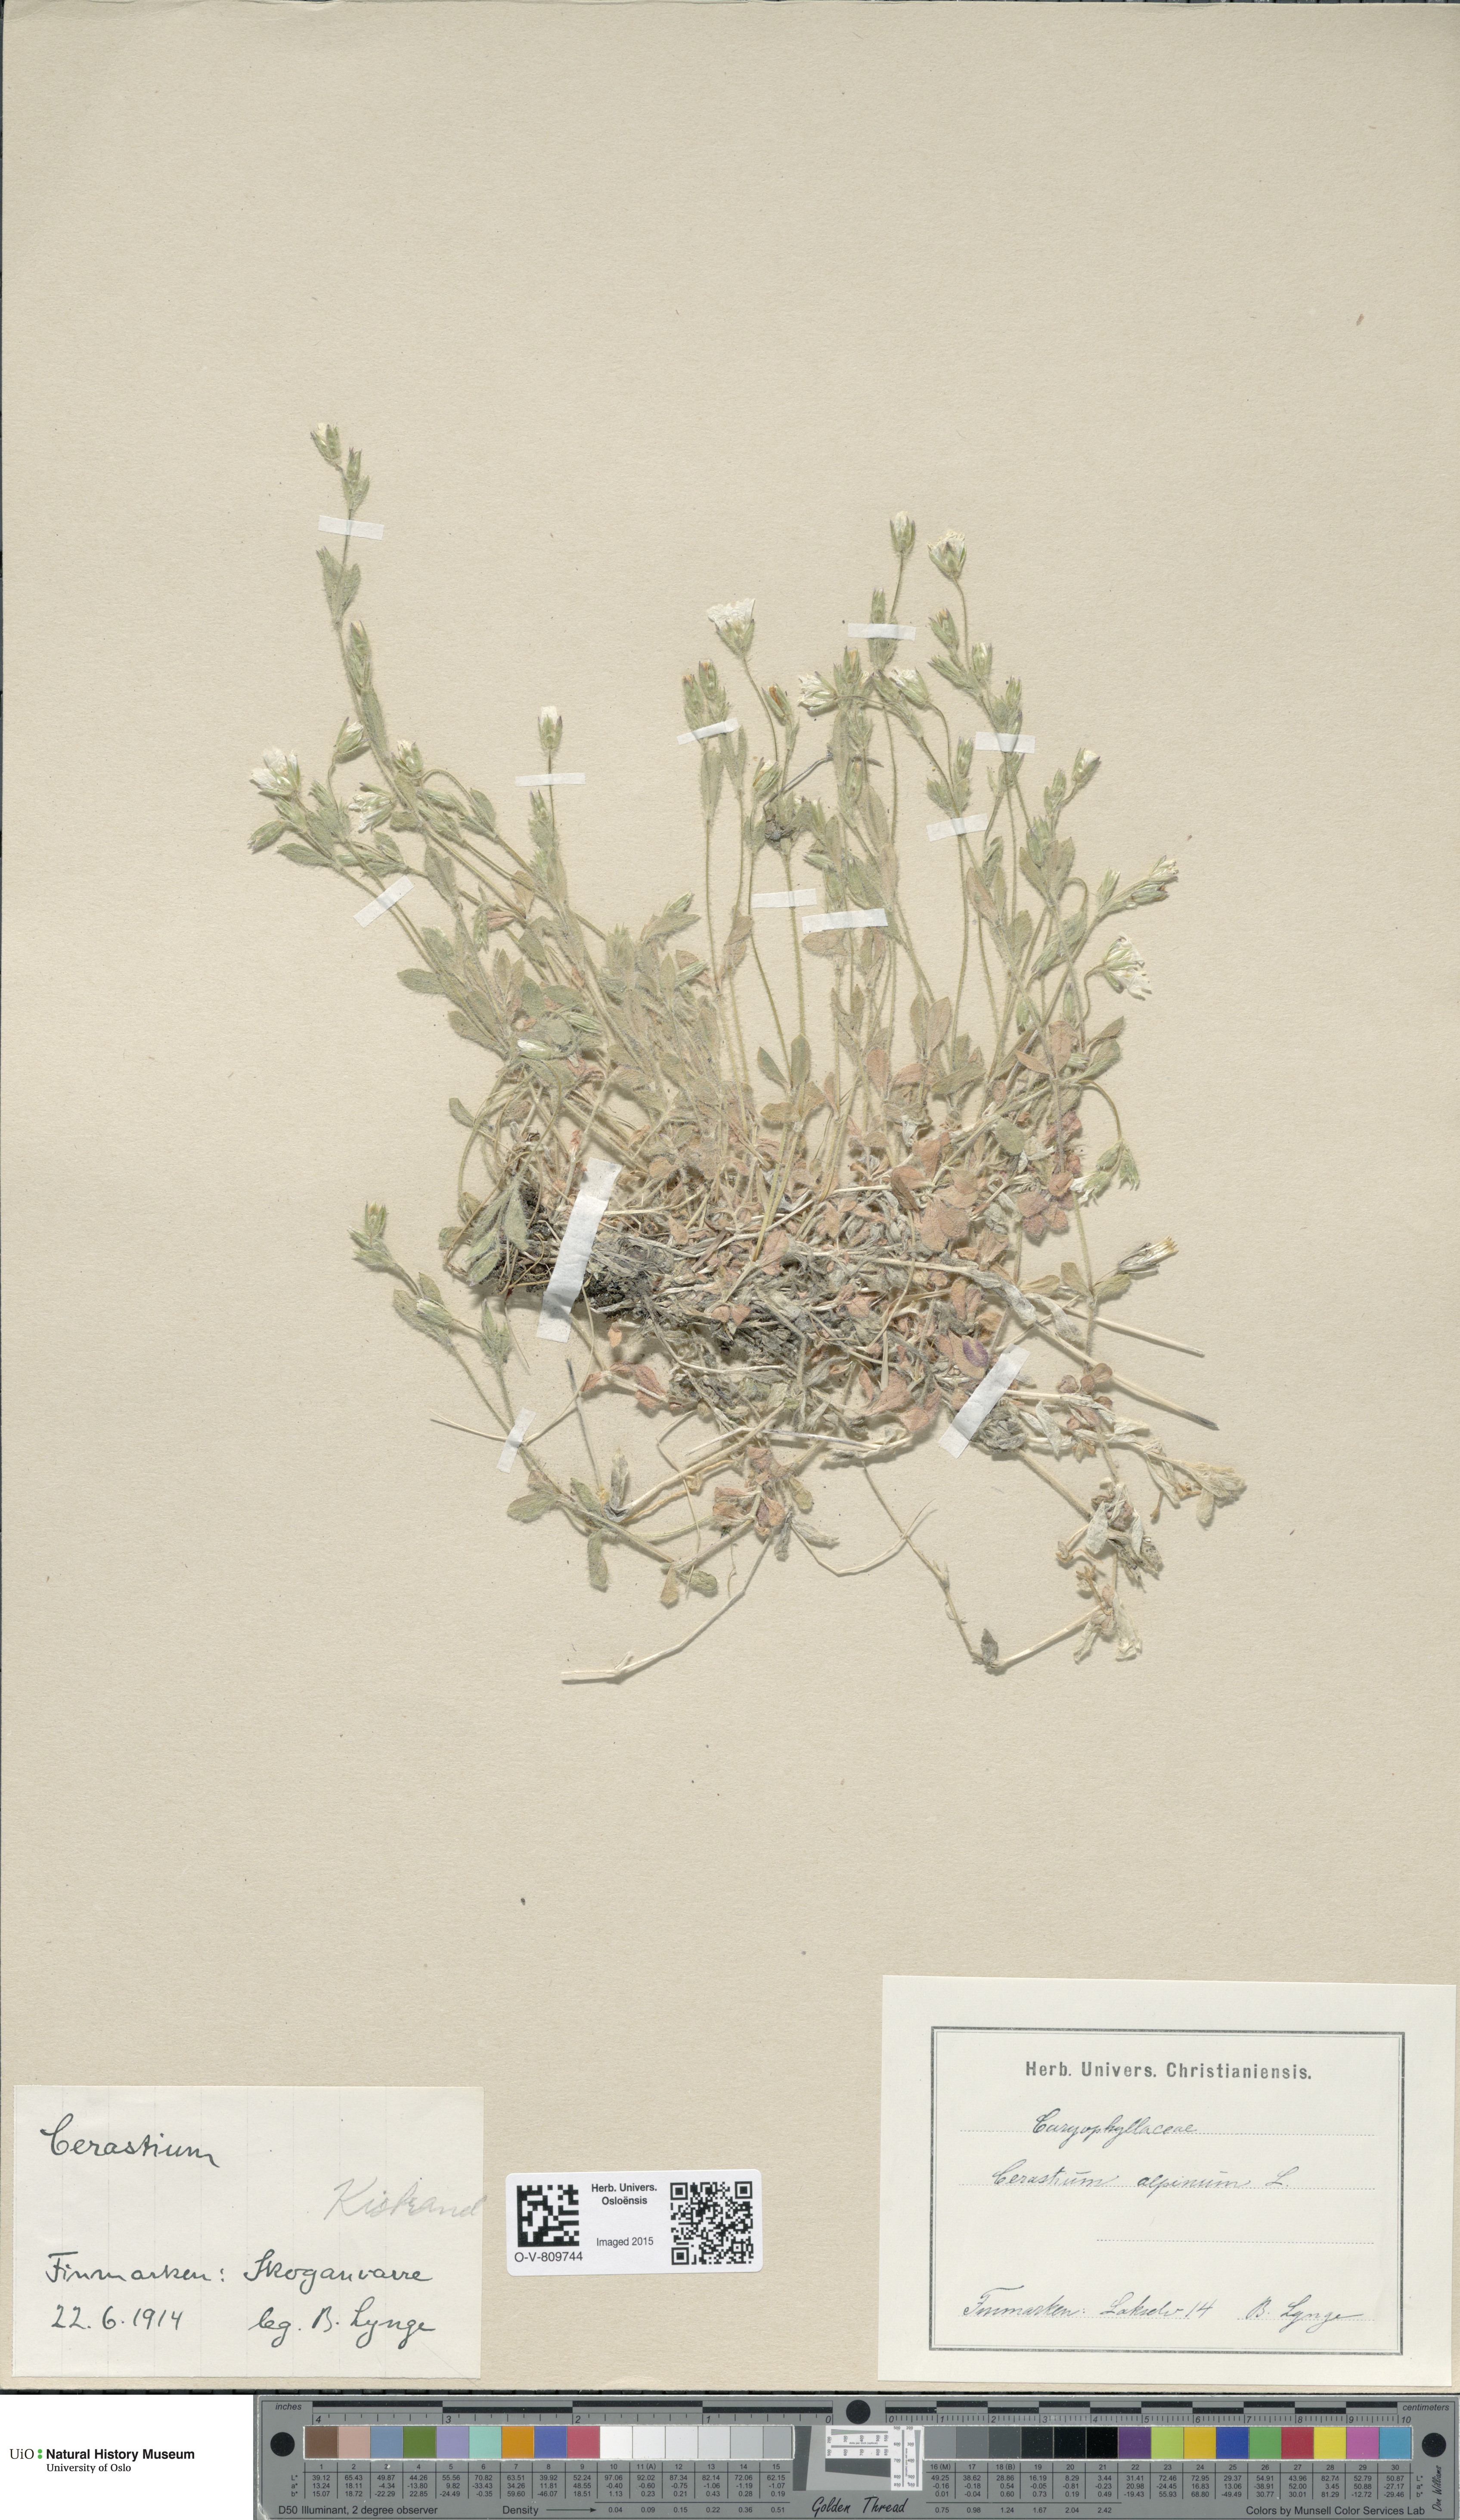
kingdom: Plantae
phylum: Tracheophyta
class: Magnoliopsida
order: Caryophyllales
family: Caryophyllaceae
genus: Cerastium
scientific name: Cerastium alpinum
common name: Alpine mouse-ear
